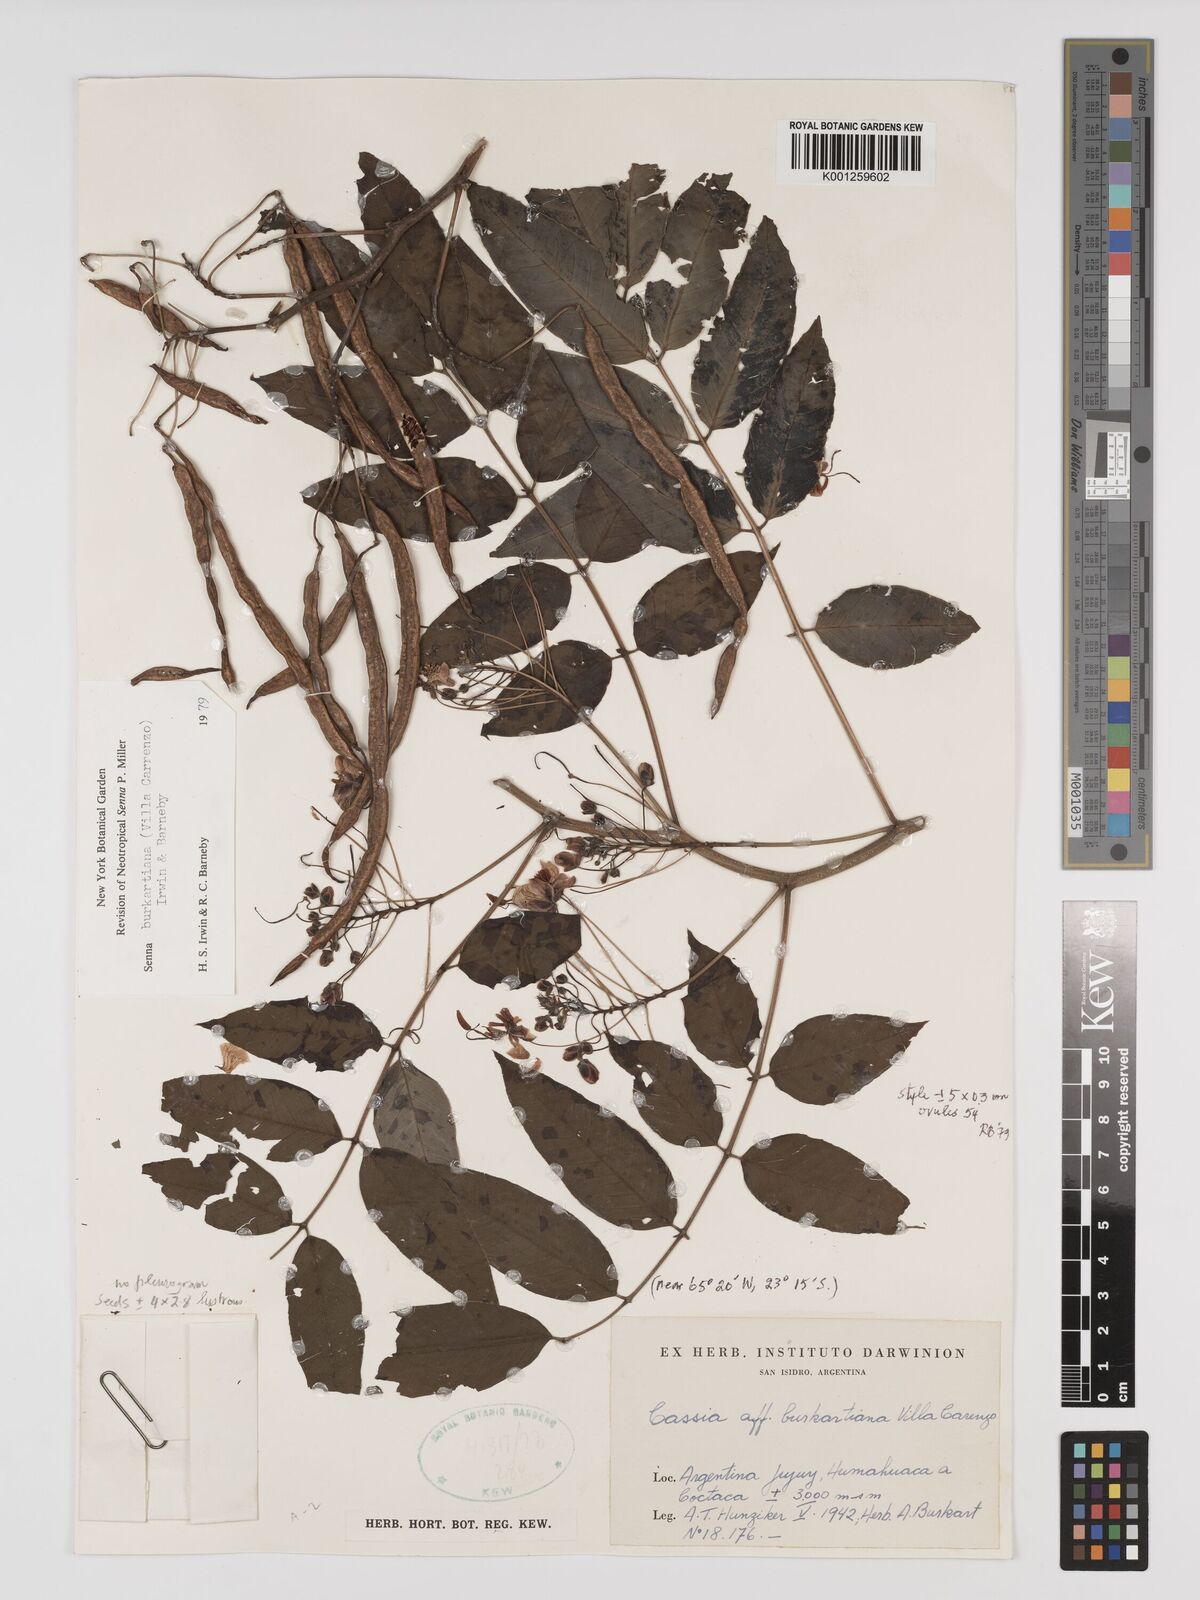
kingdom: Plantae
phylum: Tracheophyta
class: Magnoliopsida
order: Fabales
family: Fabaceae
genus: Senna
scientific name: Senna burkartiana
